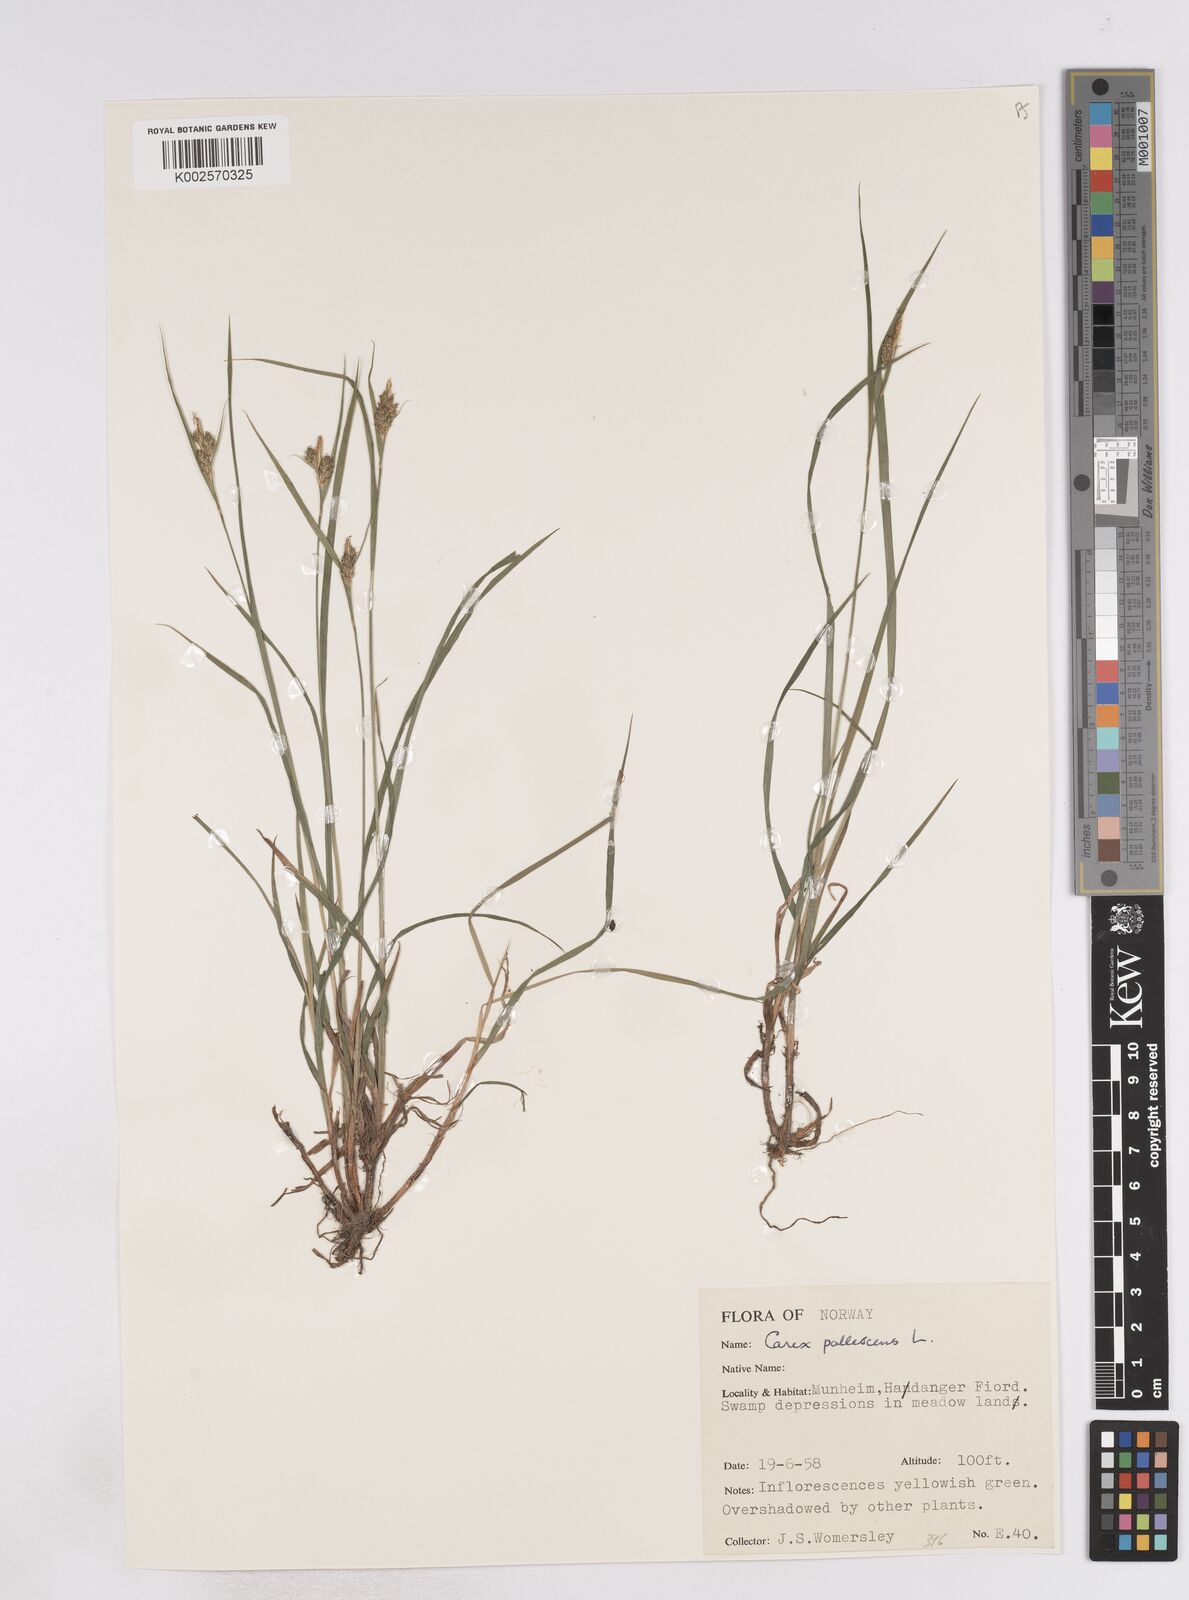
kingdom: Plantae
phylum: Tracheophyta
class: Liliopsida
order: Poales
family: Cyperaceae
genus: Carex
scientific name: Carex pallescens
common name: Pale sedge
